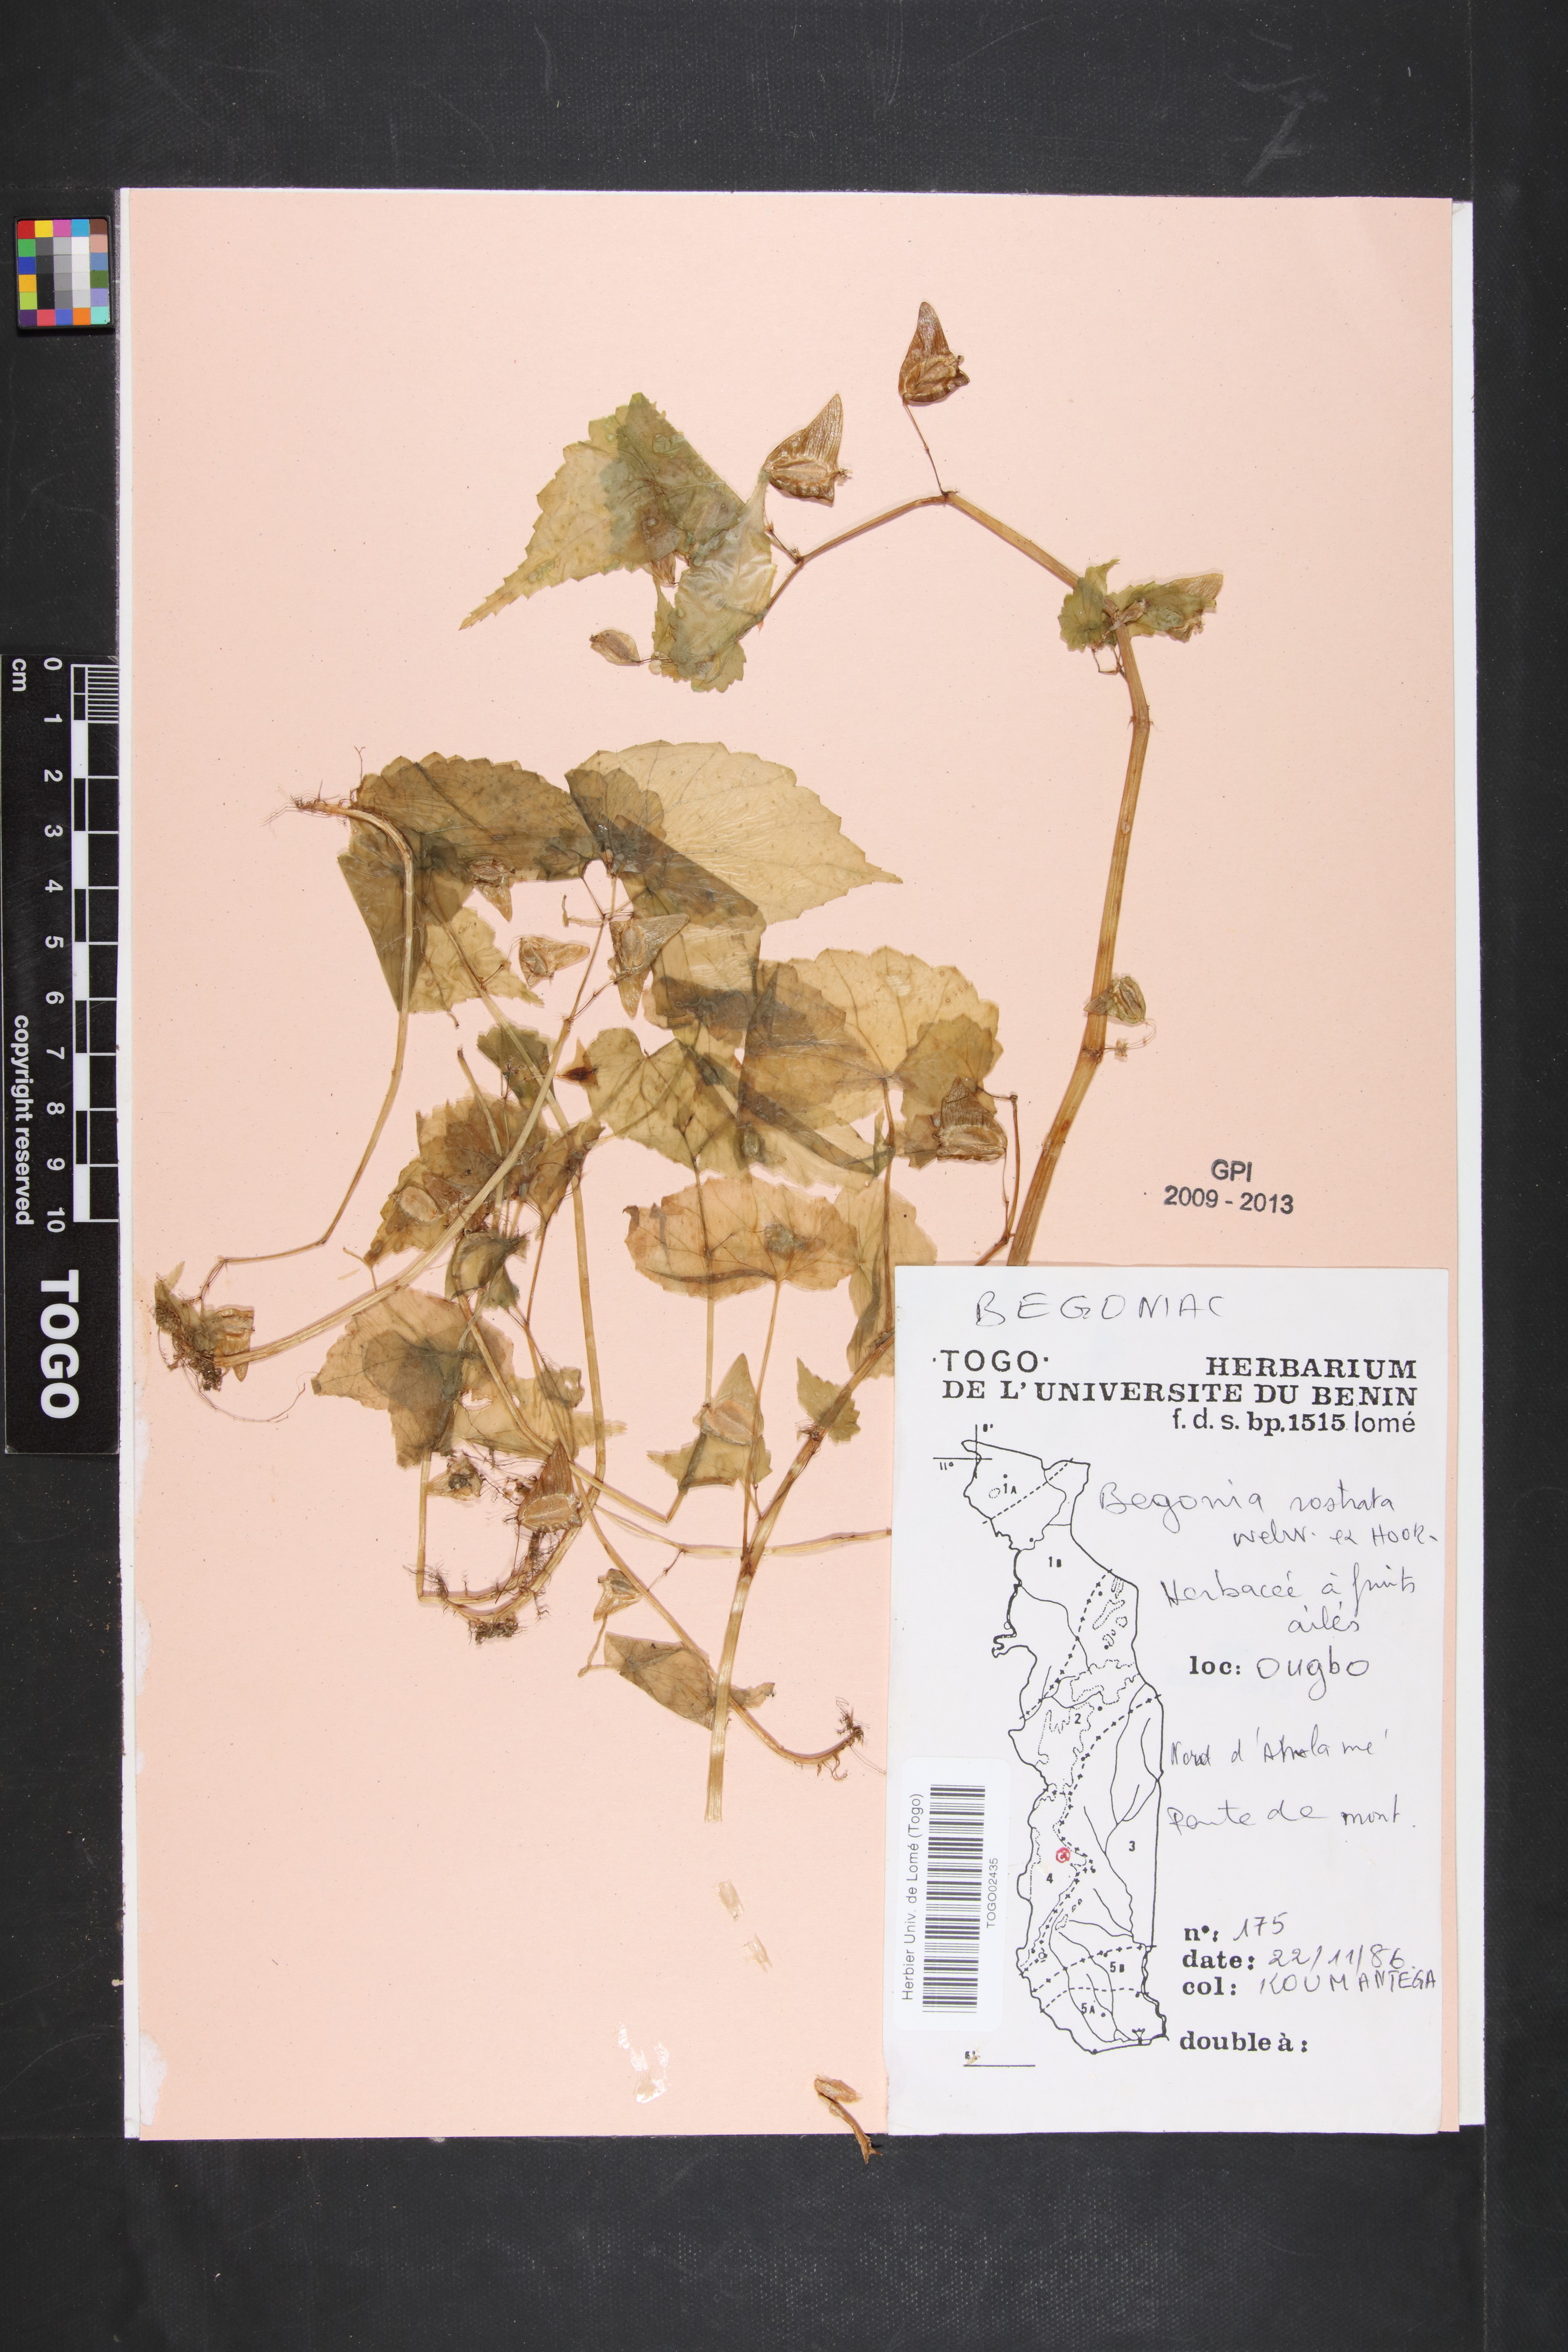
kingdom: Plantae
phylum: Tracheophyta
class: Magnoliopsida
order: Cucurbitales
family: Begoniaceae
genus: Begonia
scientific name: Begonia rostrata
